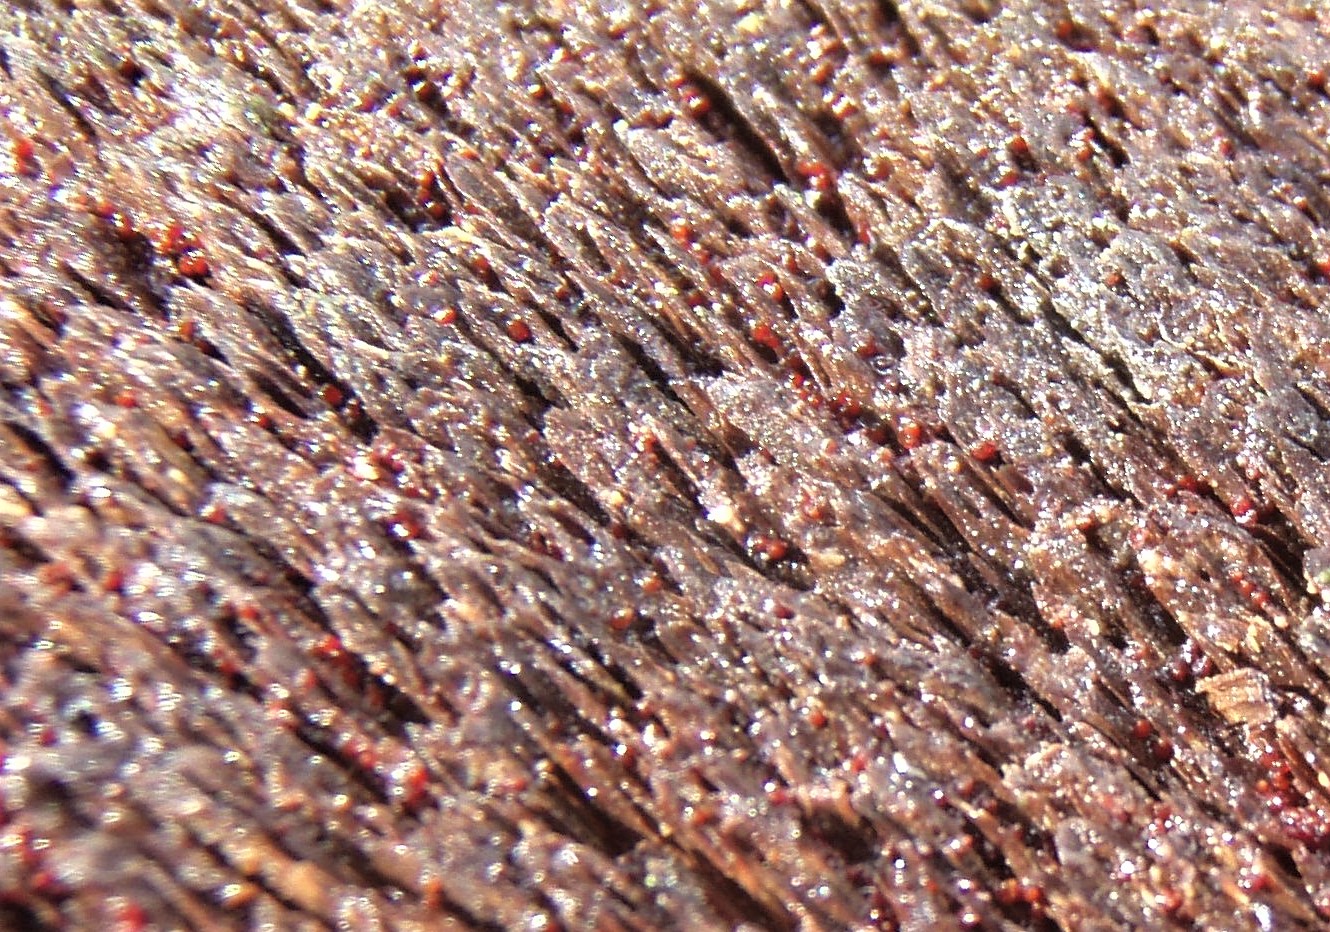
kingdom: Fungi
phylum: Ascomycota
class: Sordariomycetes
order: Hypocreales
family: Nectriaceae
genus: Cosmospora
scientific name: Cosmospora coccinea
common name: spejlpore-cinnobersvamp
